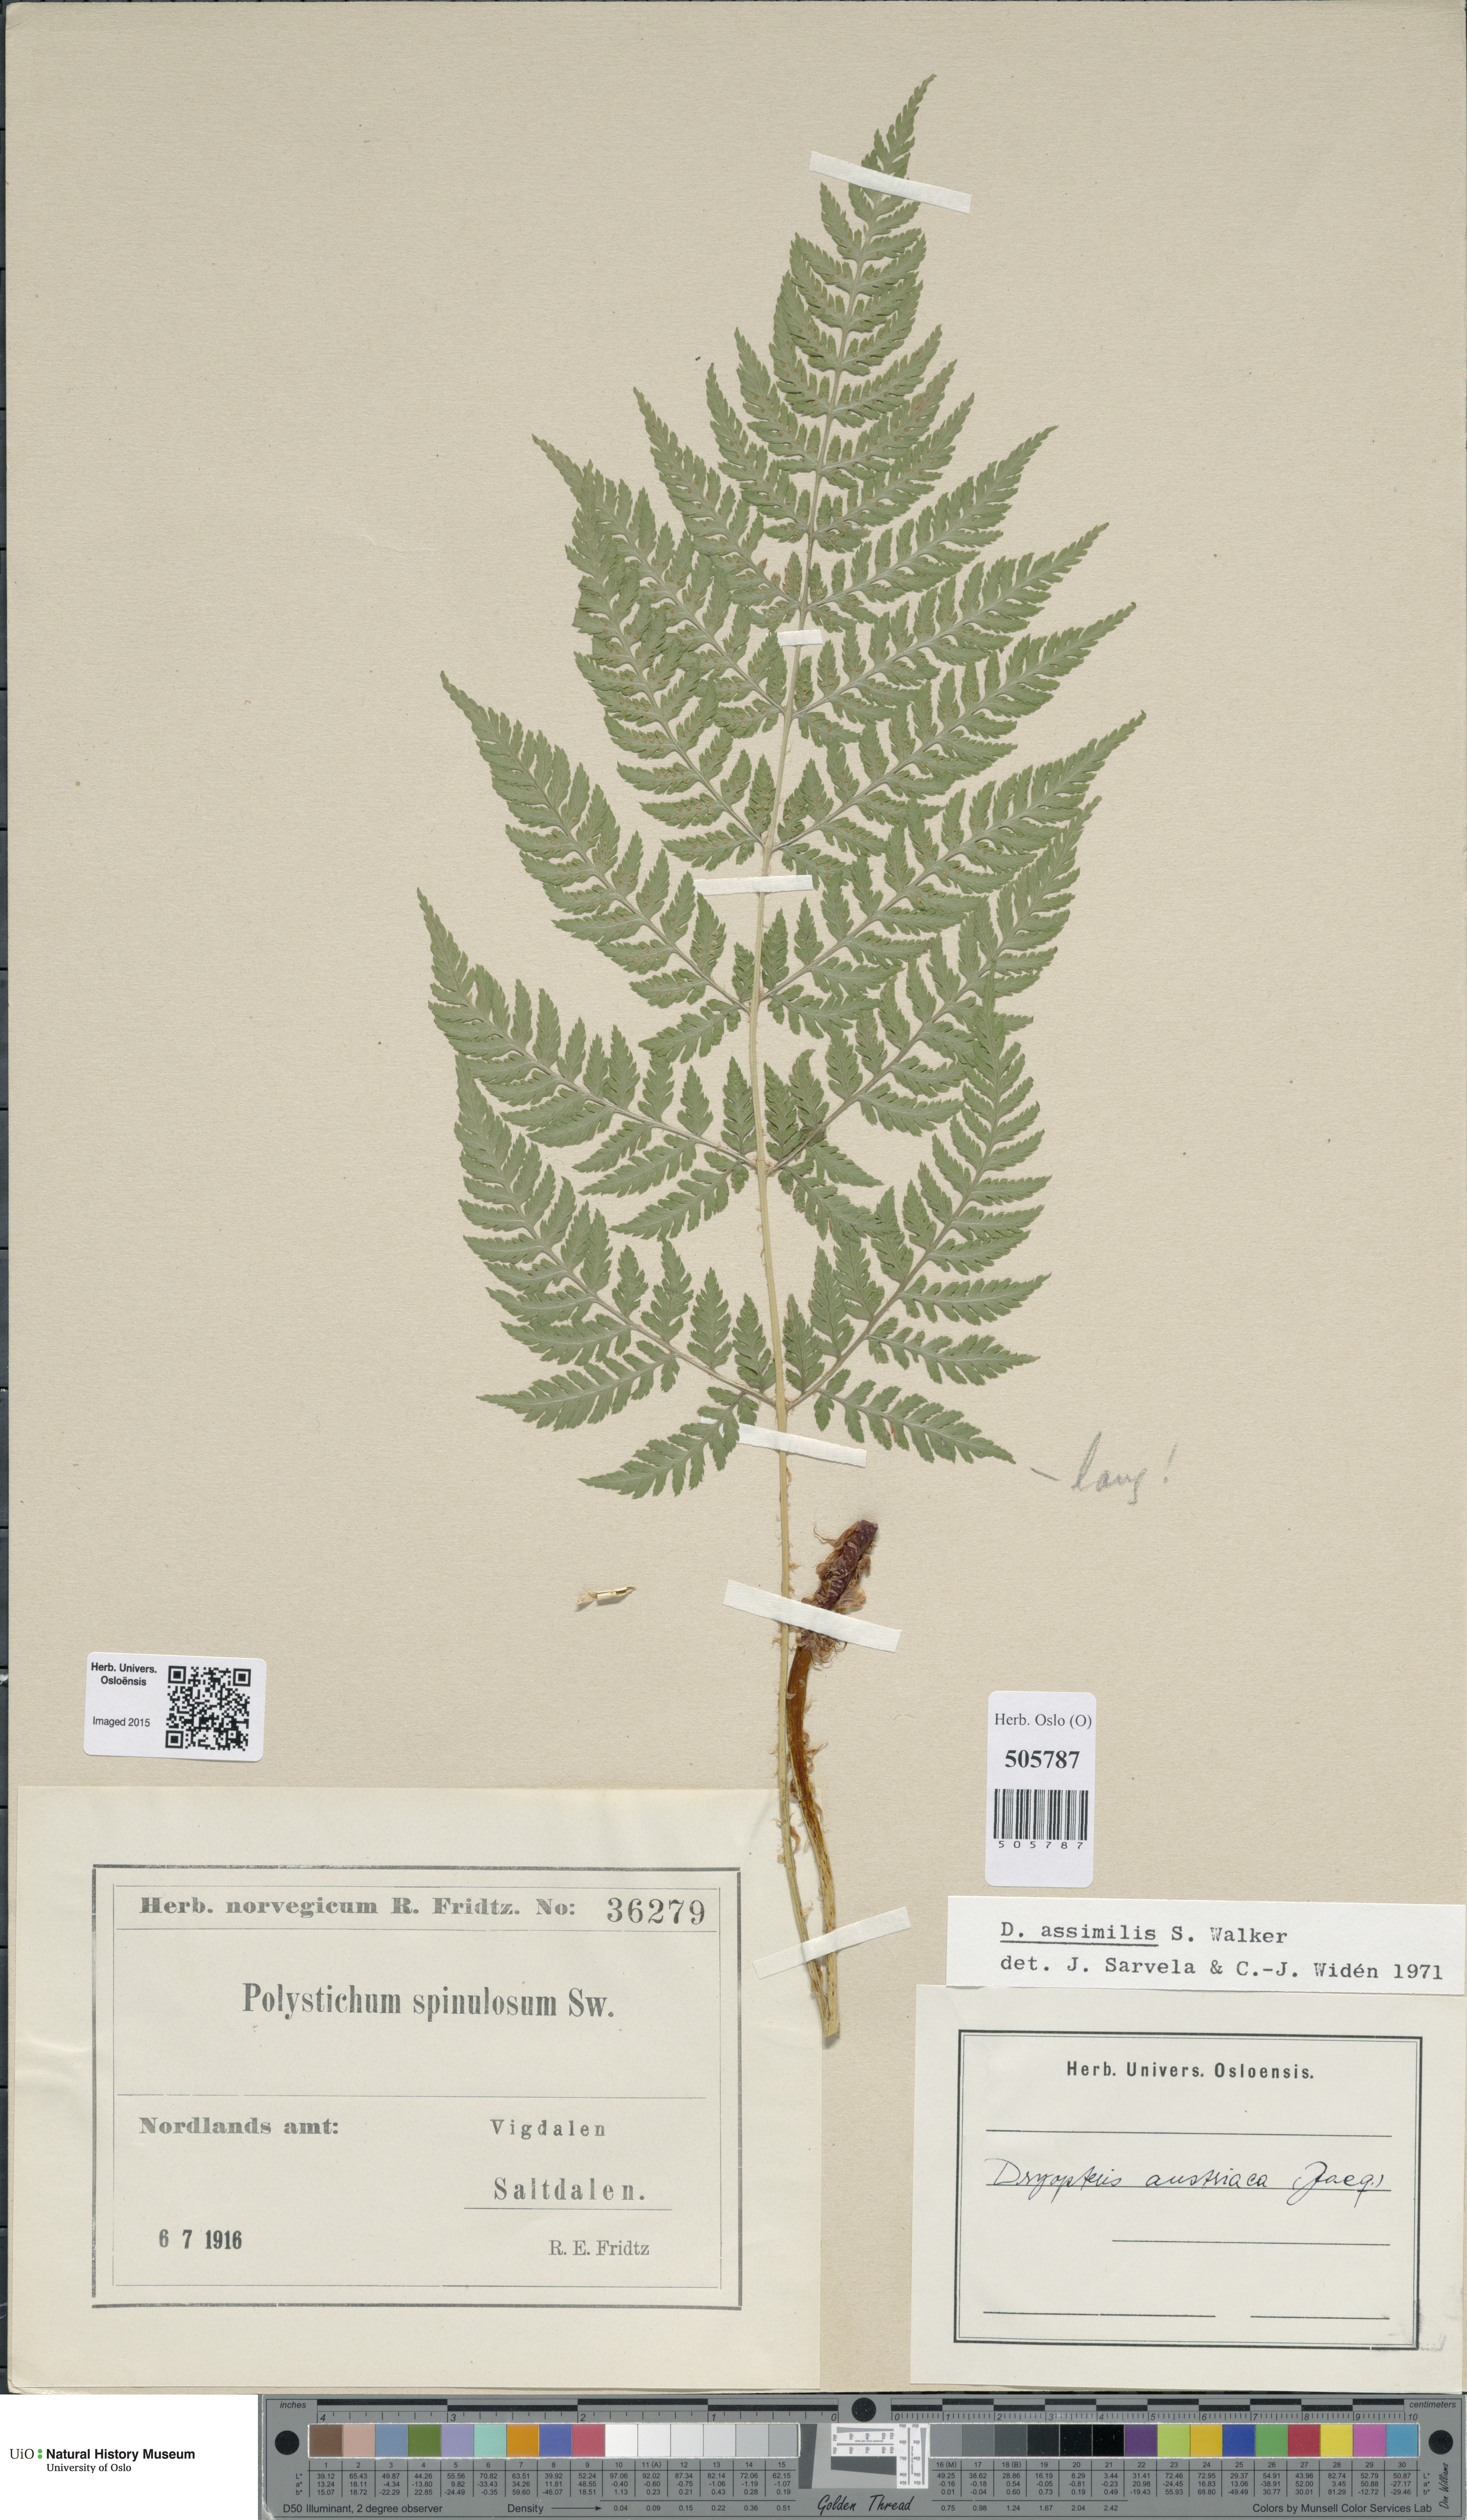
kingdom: Plantae
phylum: Tracheophyta
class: Polypodiopsida
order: Polypodiales
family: Dryopteridaceae
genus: Dryopteris
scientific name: Dryopteris expansa
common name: Northern buckler fern
